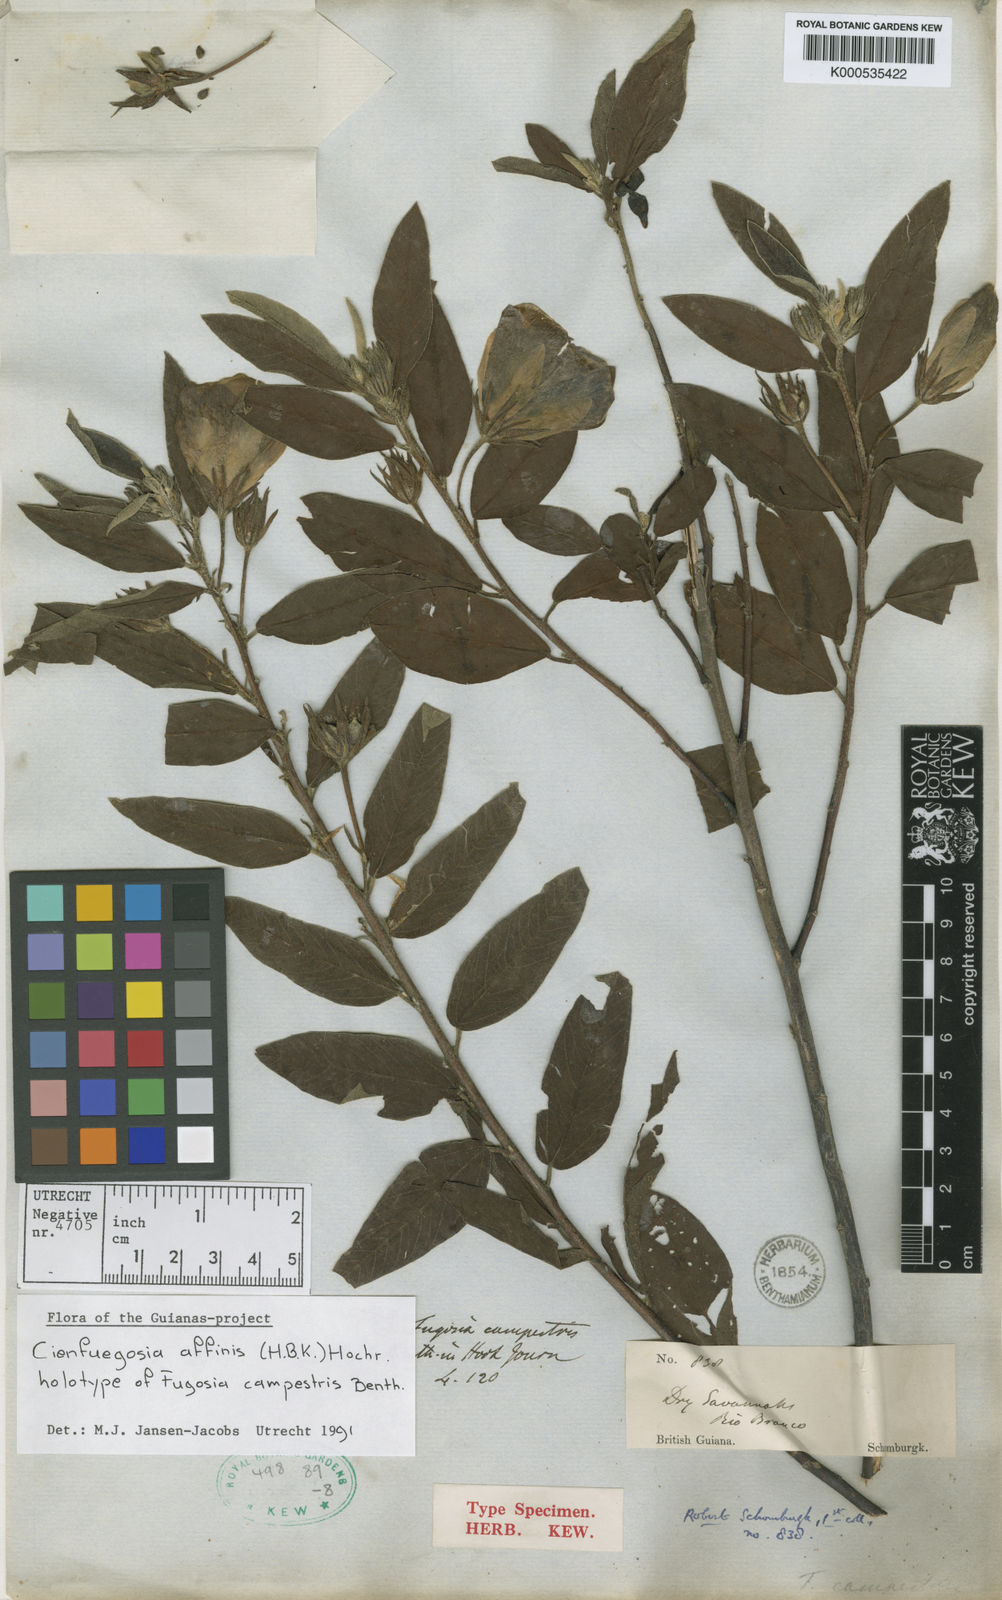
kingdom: Plantae
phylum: Tracheophyta
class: Magnoliopsida
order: Malvales
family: Malvaceae
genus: Cienfuegosia
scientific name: Cienfuegosia affinis
